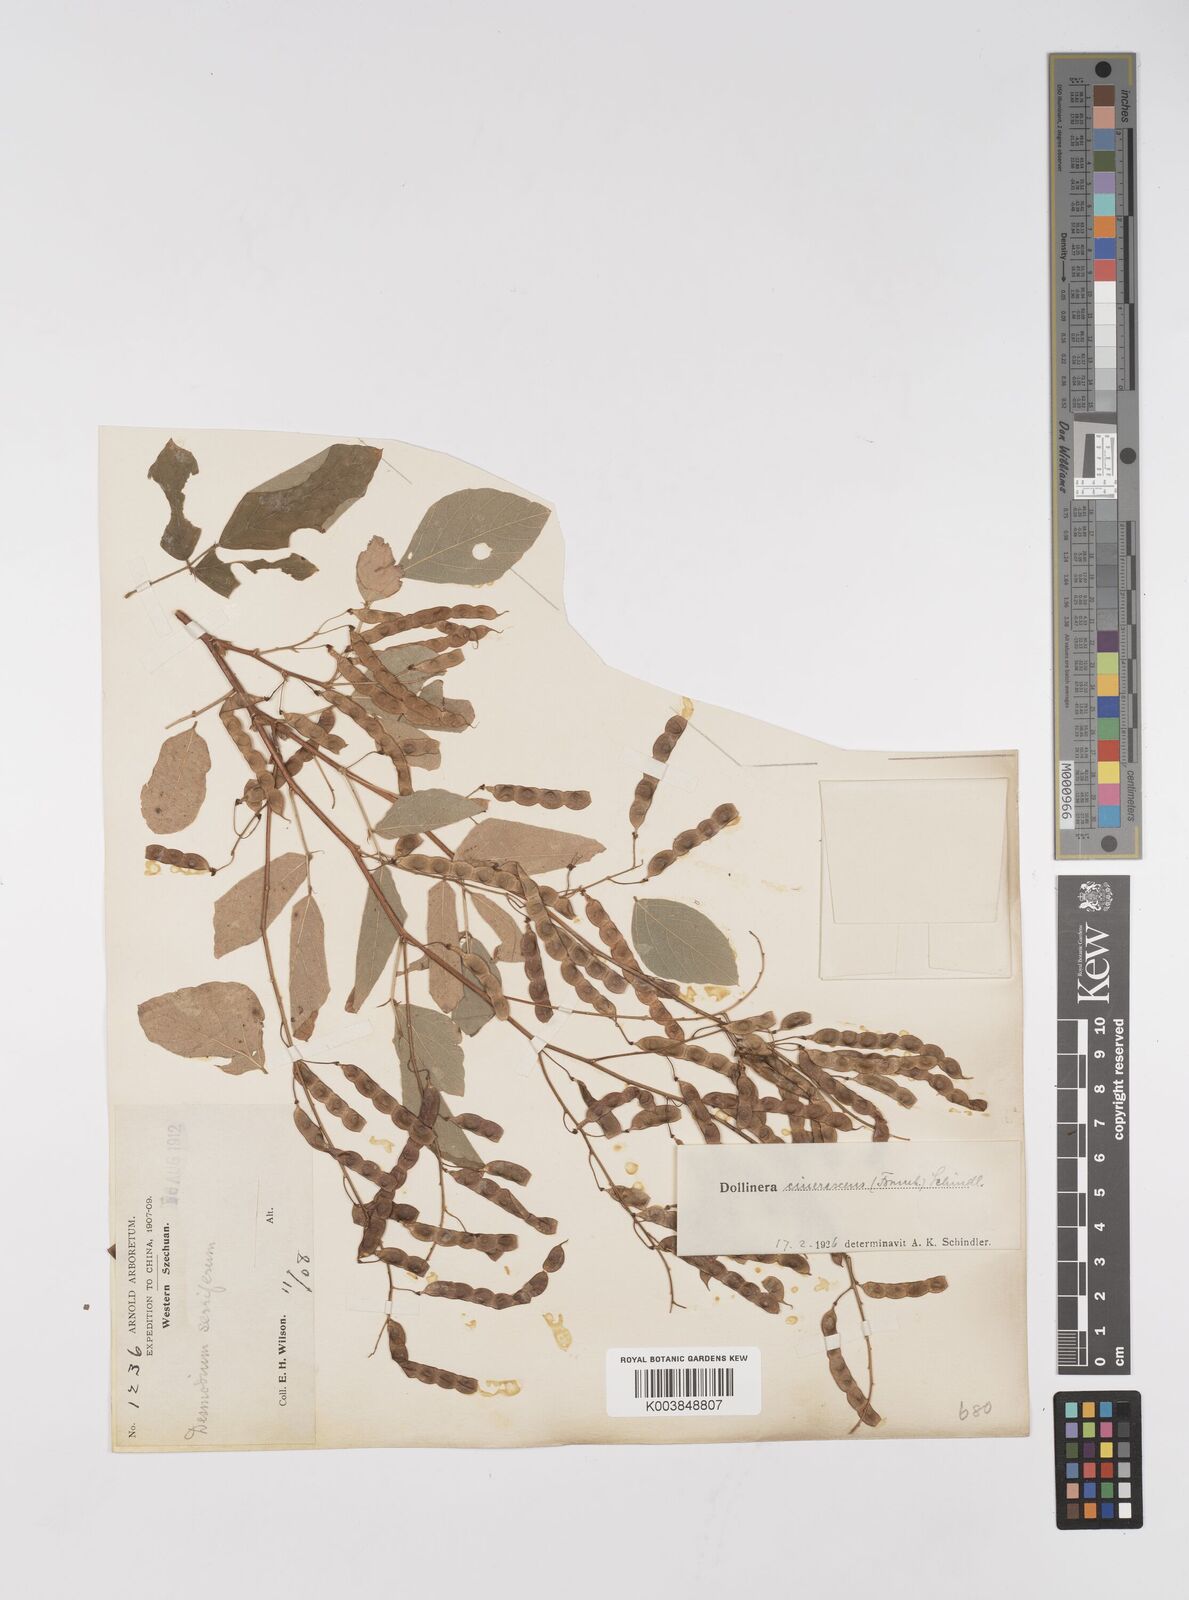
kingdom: Plantae
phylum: Tracheophyta
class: Magnoliopsida
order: Fabales
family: Fabaceae
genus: Ototropis
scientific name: Ototropis
